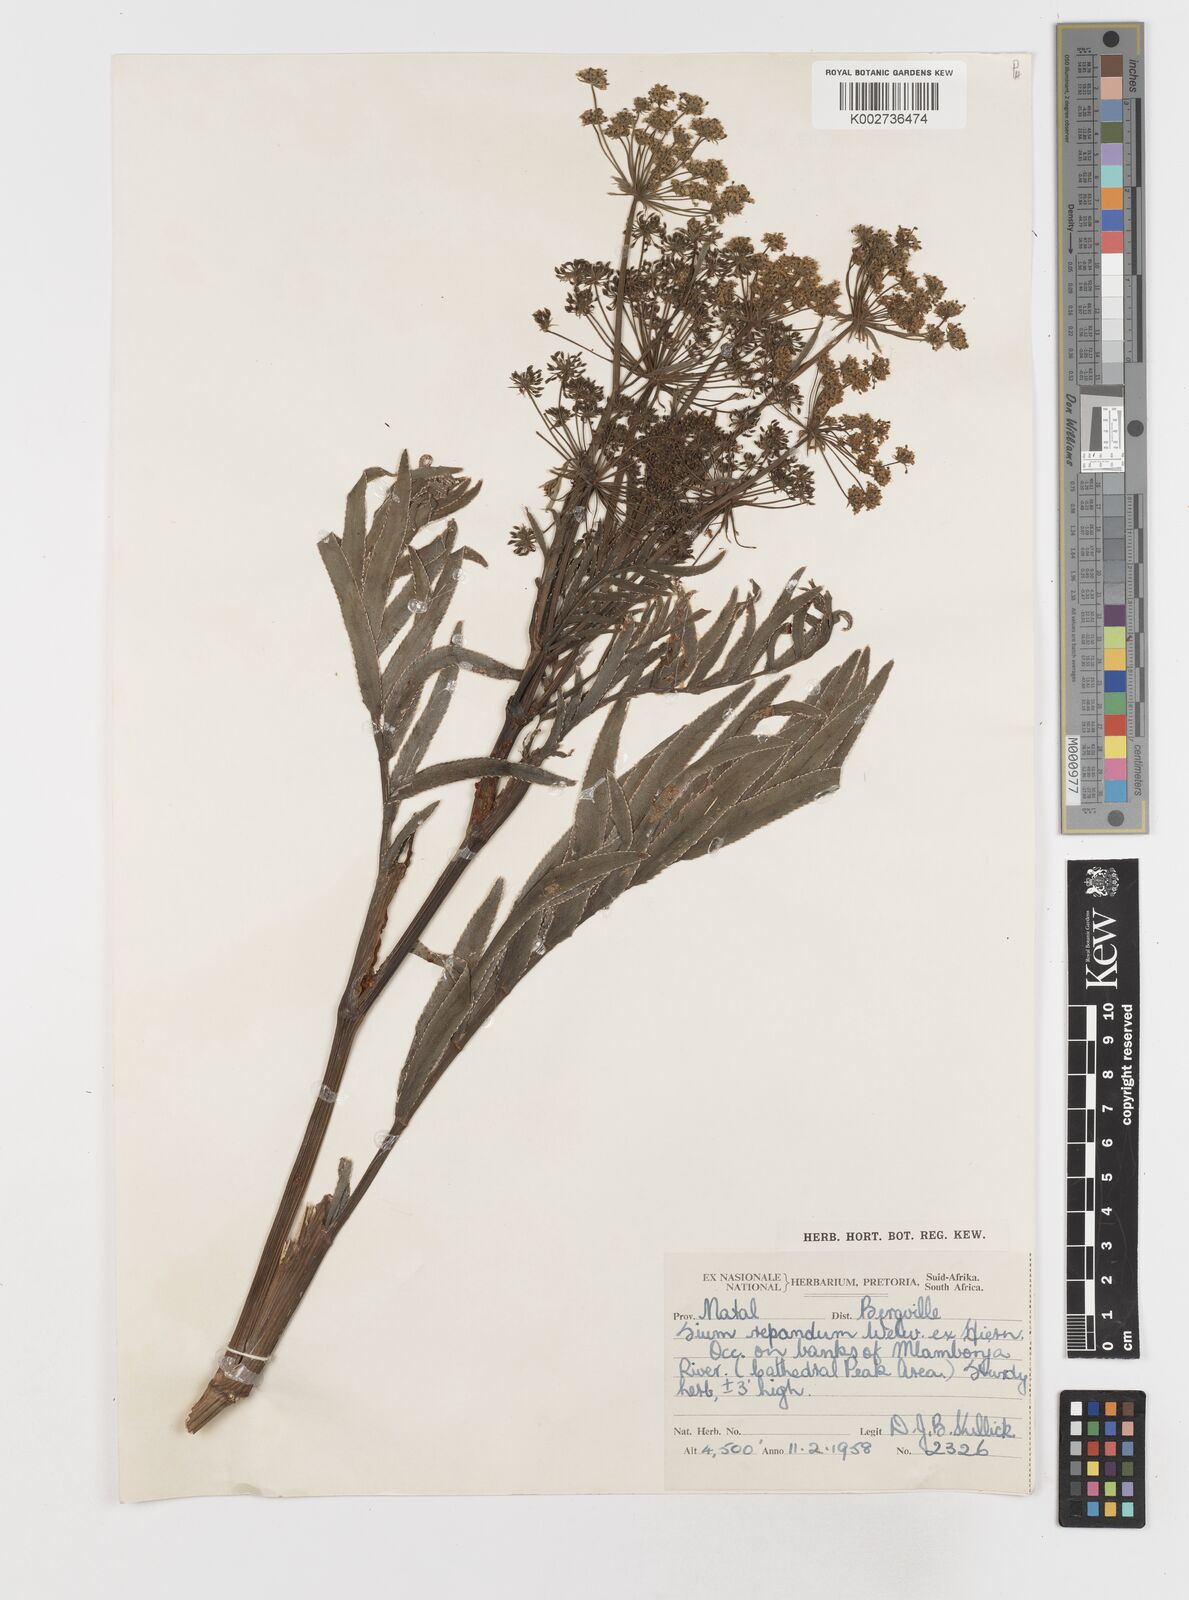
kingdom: Plantae
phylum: Tracheophyta
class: Magnoliopsida
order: Apiales
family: Apiaceae
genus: Berula
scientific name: Berula repanda
